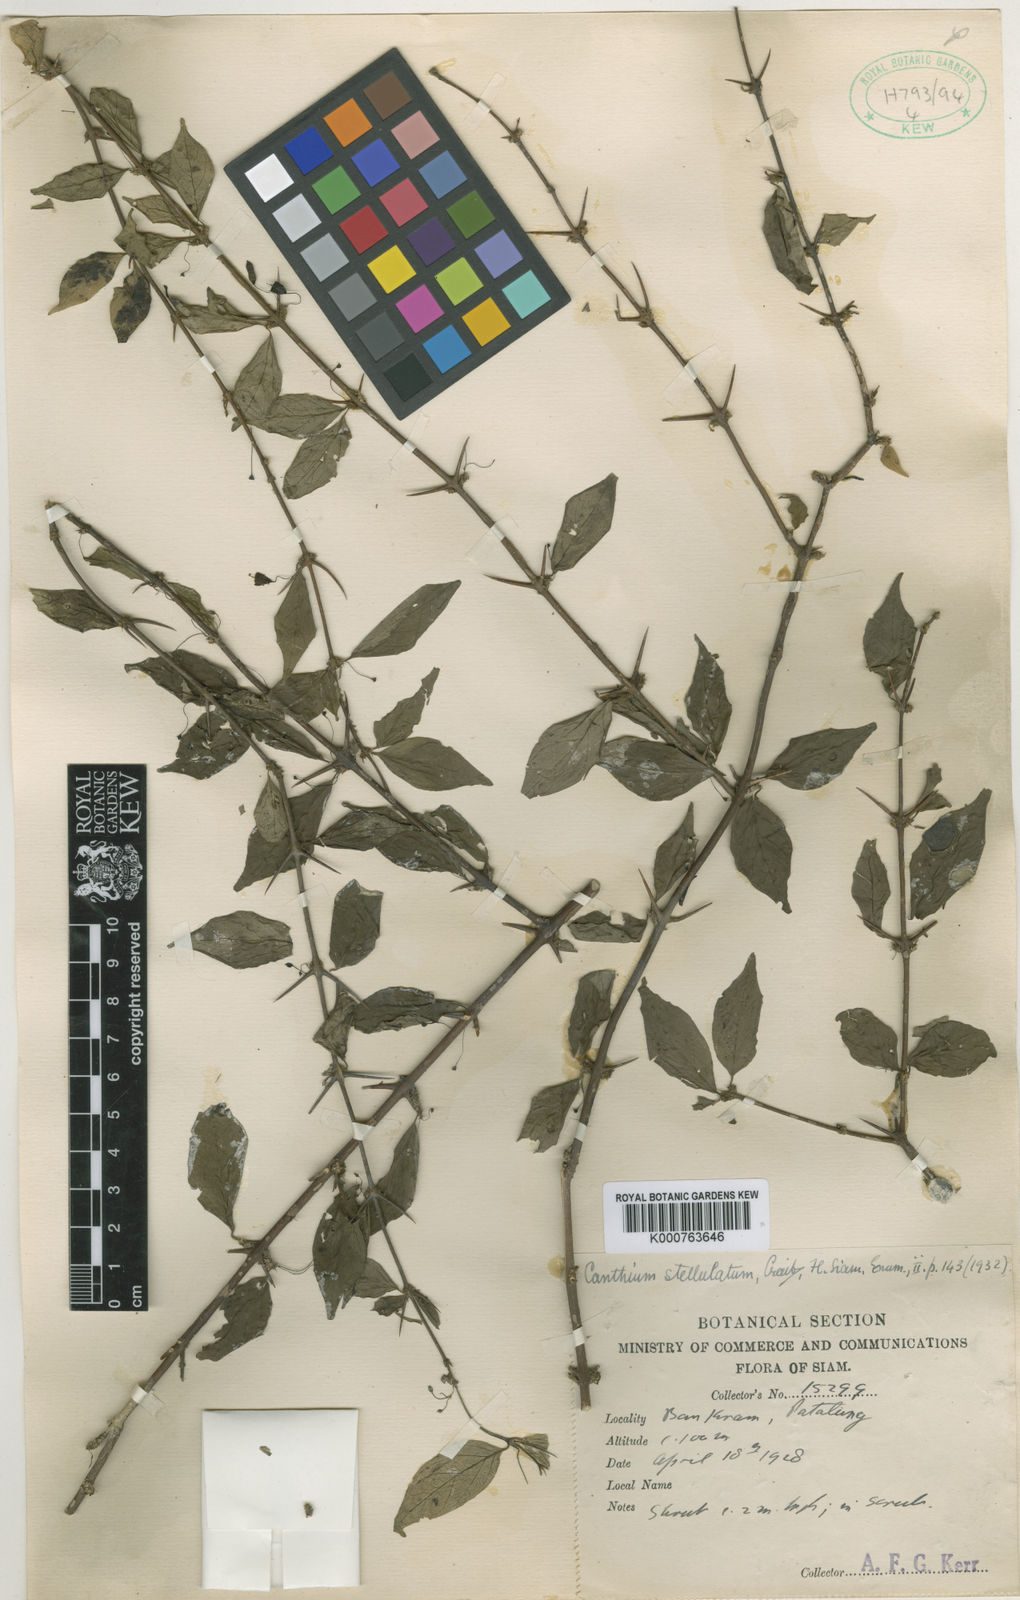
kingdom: Plantae
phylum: Tracheophyta
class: Magnoliopsida
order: Gentianales
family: Rubiaceae
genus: Canthium
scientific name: Canthium stellulatum
